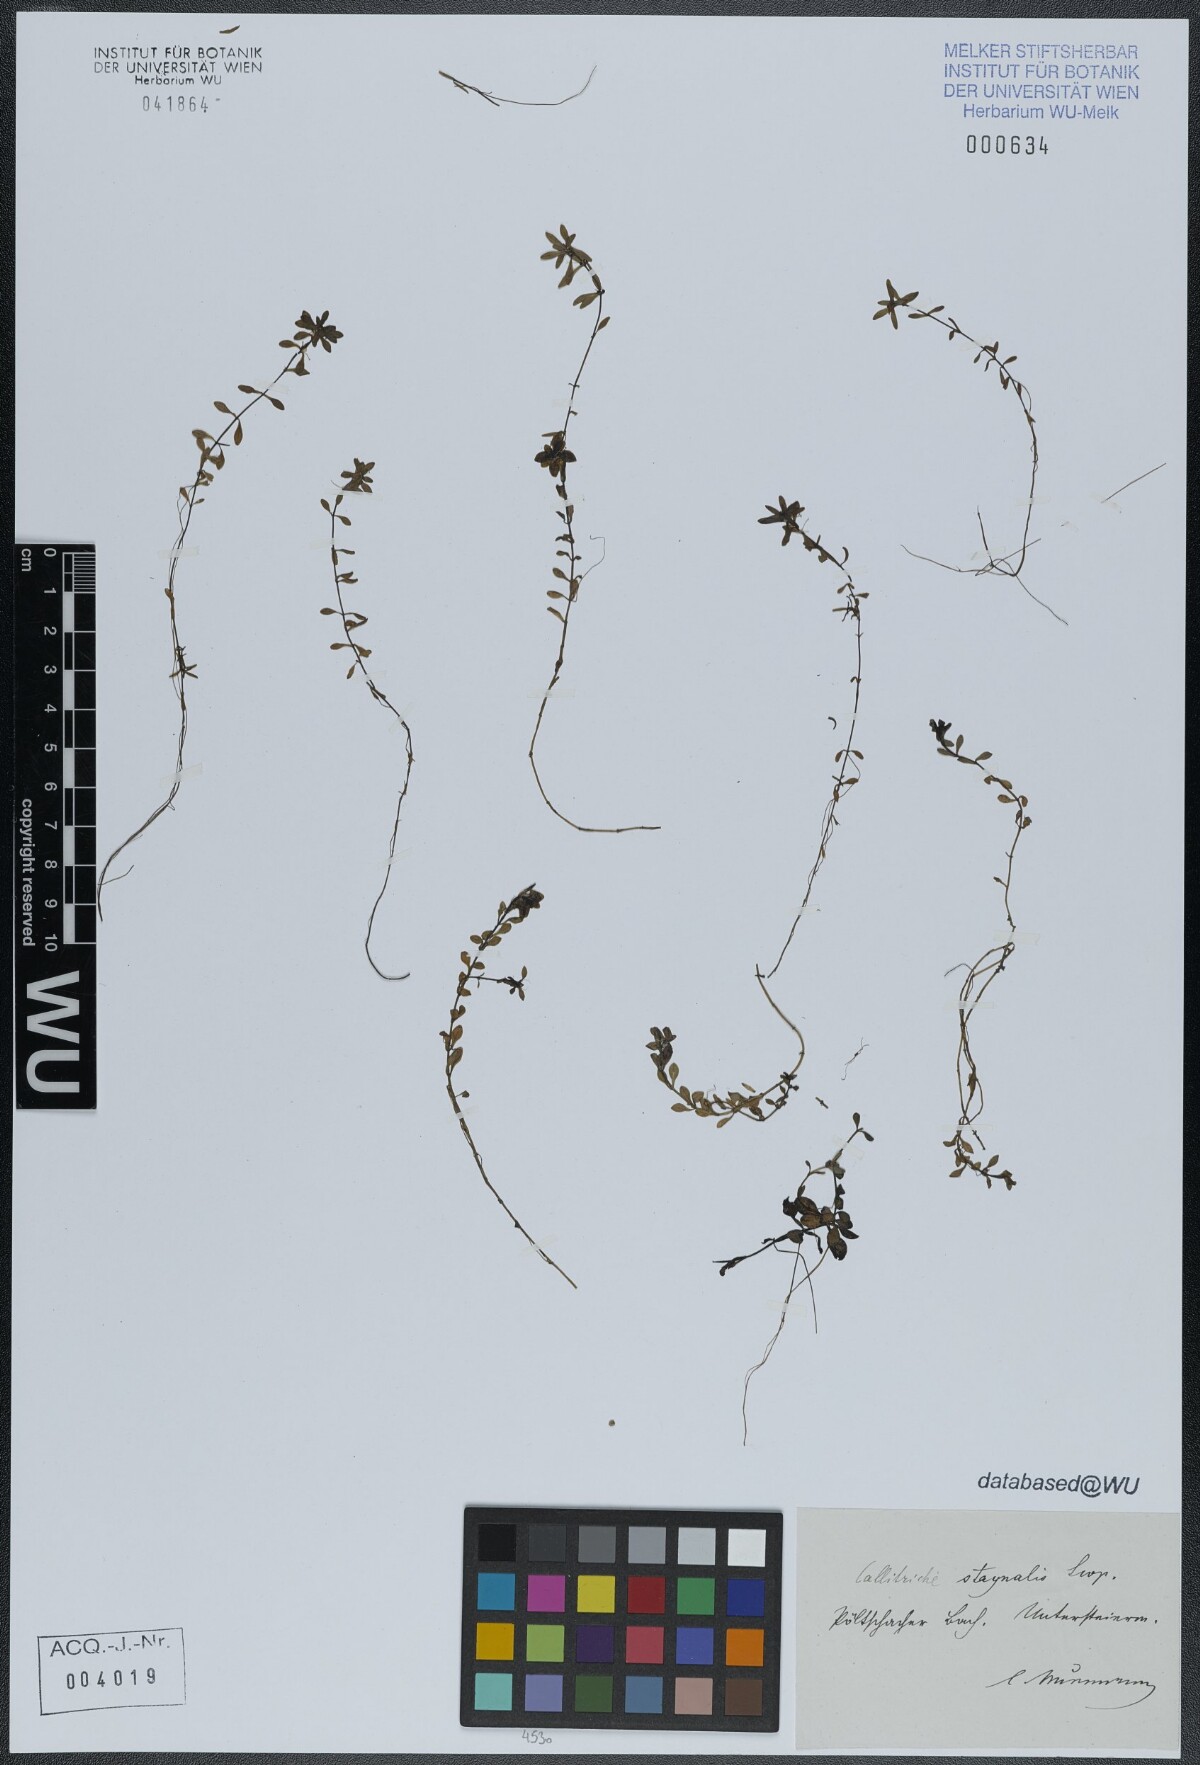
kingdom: Plantae
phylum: Tracheophyta
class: Magnoliopsida
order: Lamiales
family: Plantaginaceae
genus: Callitriche
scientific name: Callitriche stagnalis
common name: Common water-starwort
